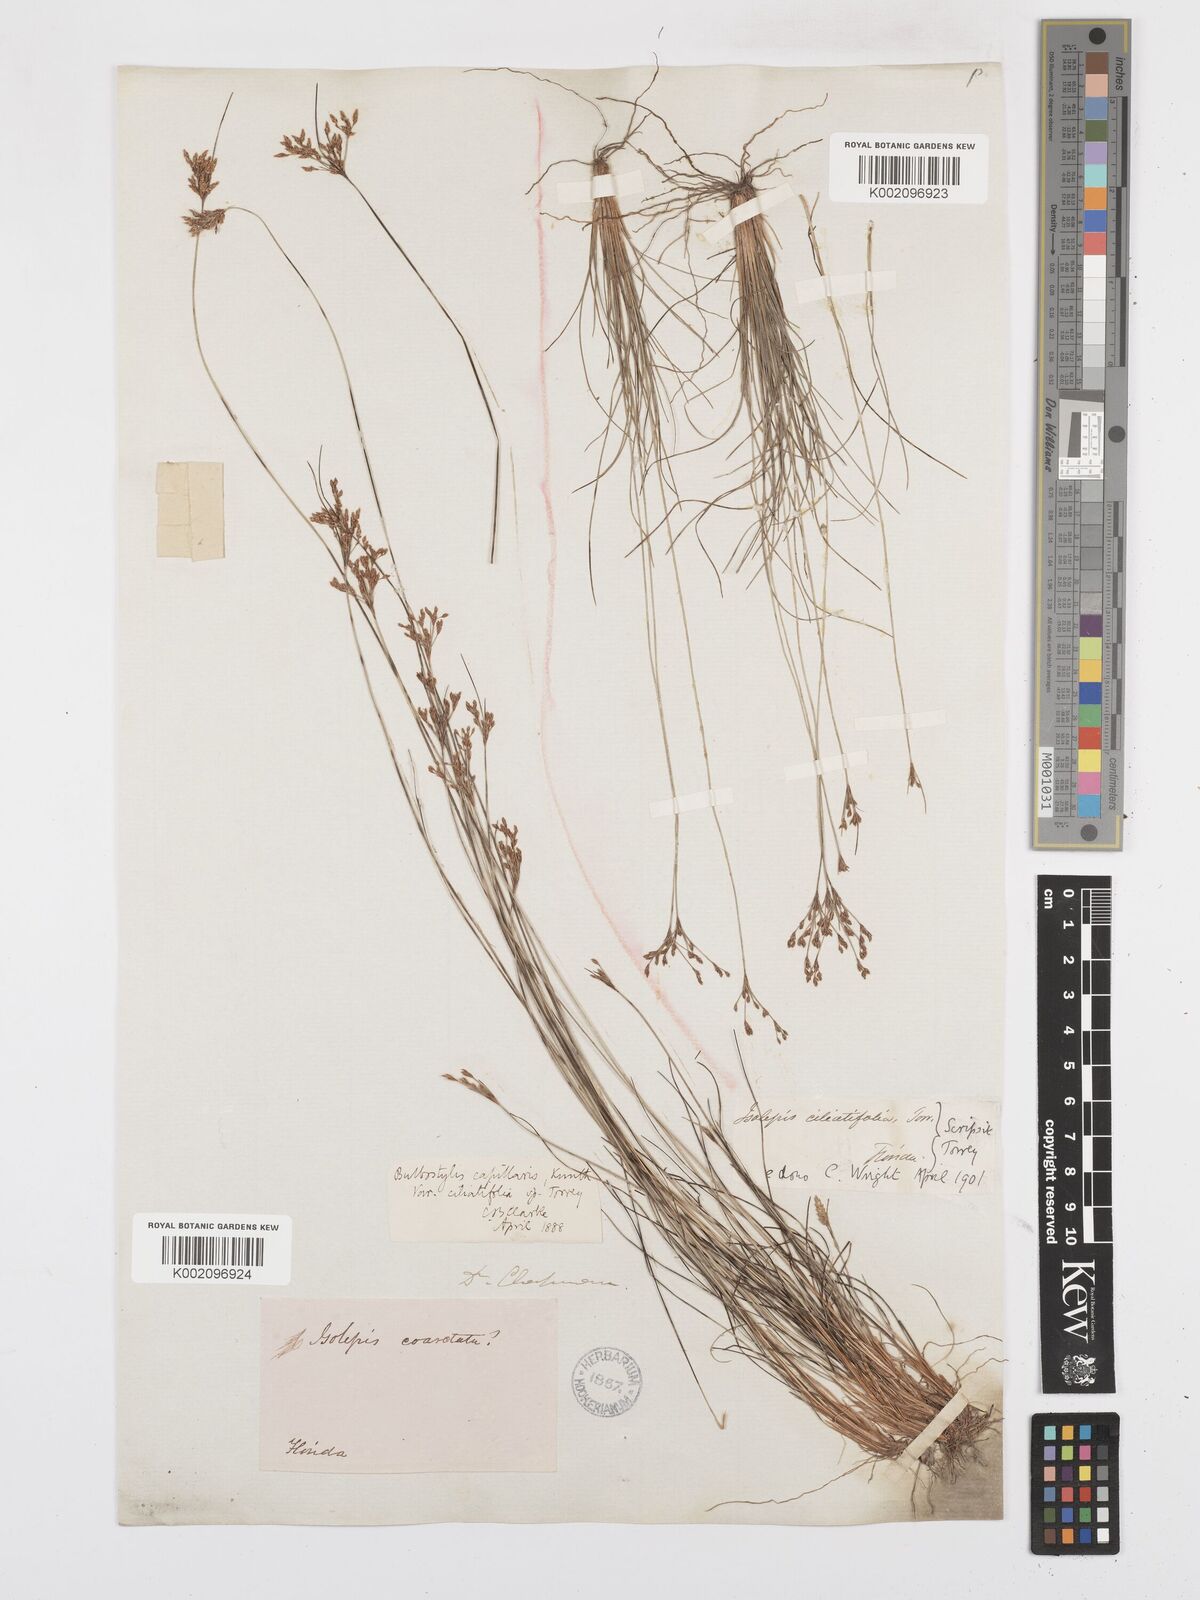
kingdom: Plantae
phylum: Tracheophyta
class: Liliopsida
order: Poales
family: Cyperaceae
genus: Bulbostylis
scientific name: Bulbostylis ciliatifolia
